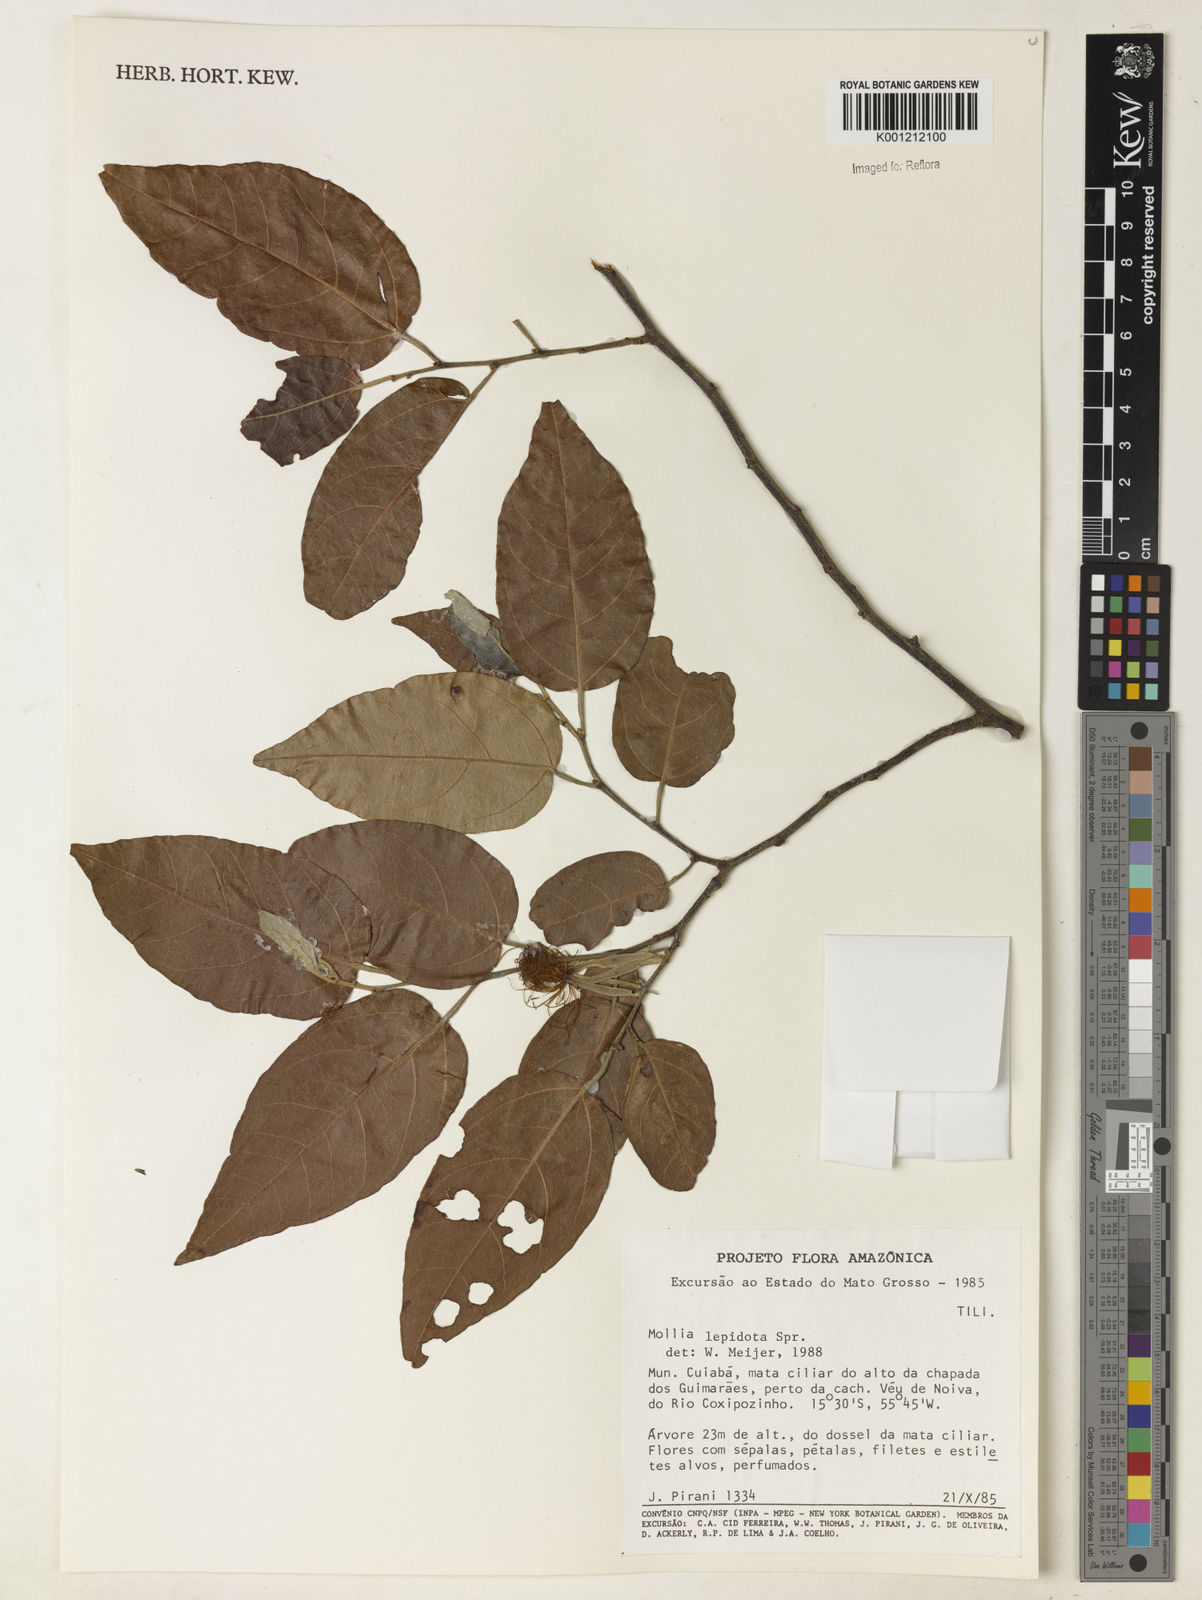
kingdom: Plantae
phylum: Tracheophyta
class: Magnoliopsida
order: Malvales
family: Malvaceae
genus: Mollia
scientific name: Mollia lepidota
